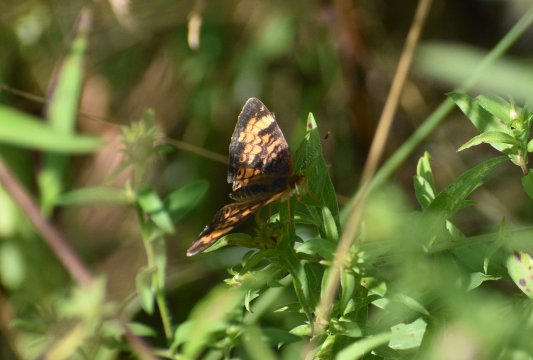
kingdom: Animalia
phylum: Arthropoda
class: Insecta
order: Lepidoptera
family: Nymphalidae
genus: Phyciodes
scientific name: Phyciodes tharos
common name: Northern Crescent
